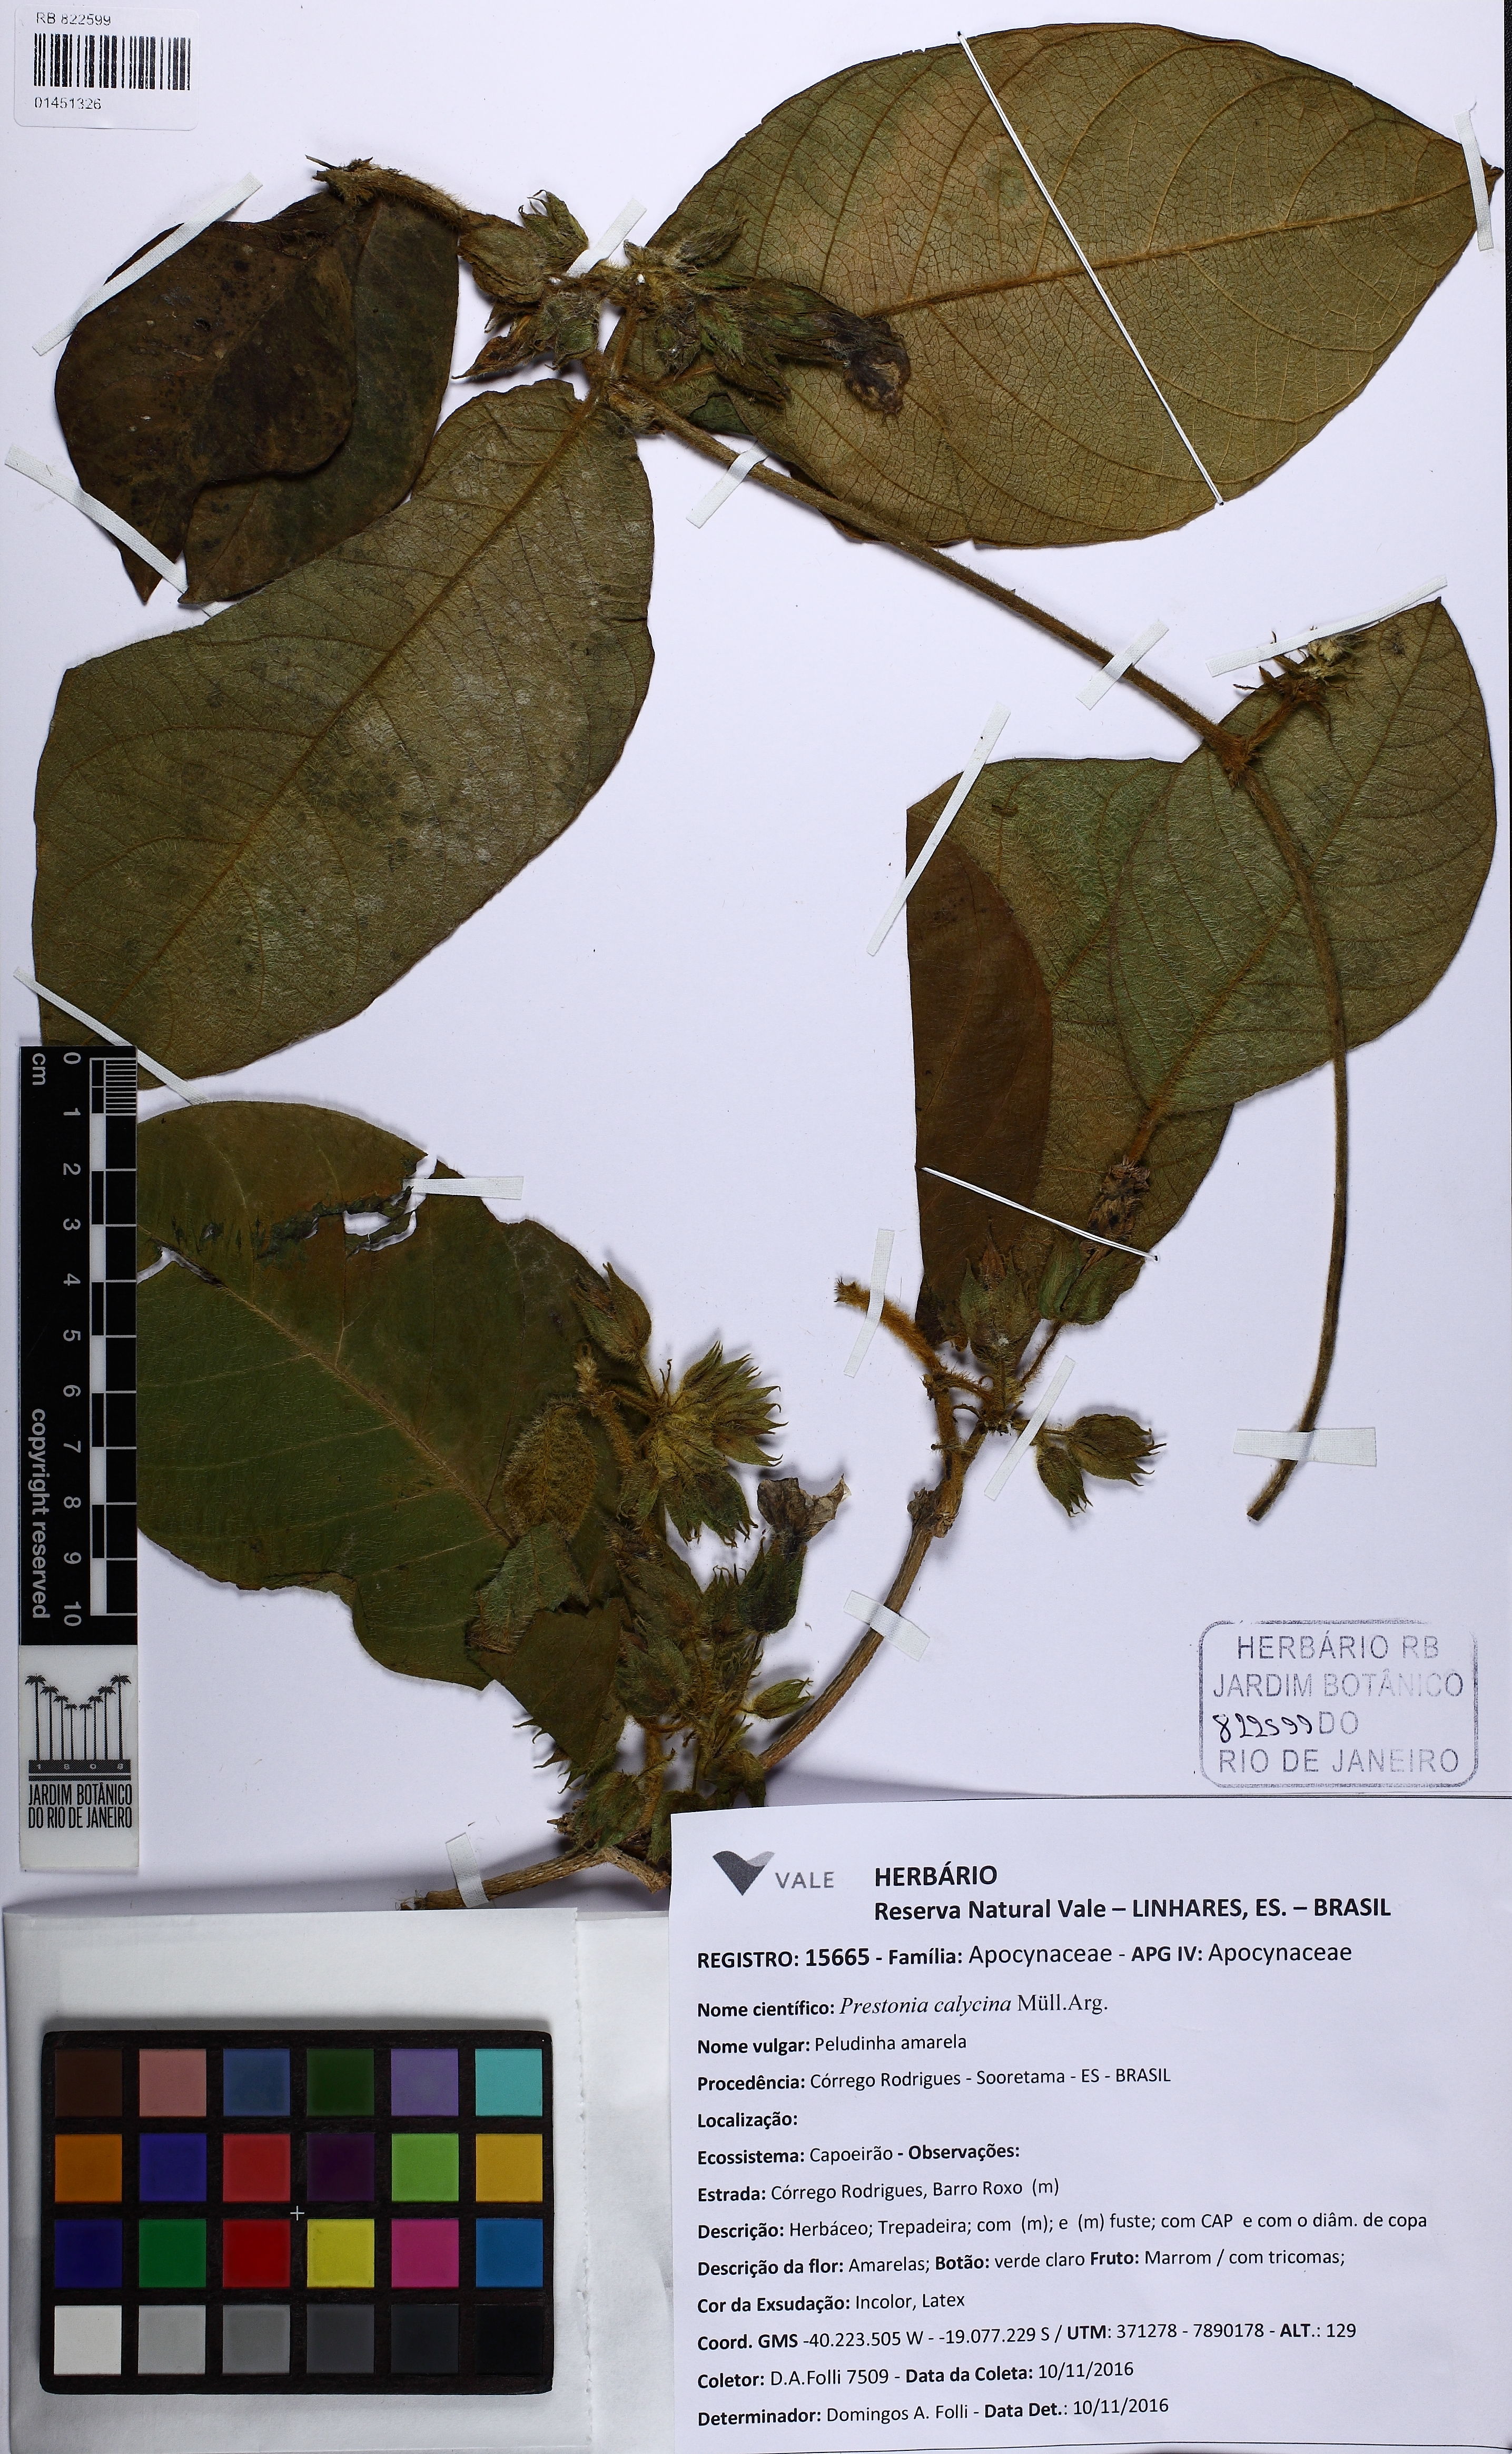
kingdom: Plantae
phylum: Tracheophyta
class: Magnoliopsida
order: Gentianales
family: Apocynaceae
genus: Prestonia
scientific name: Prestonia calycina
